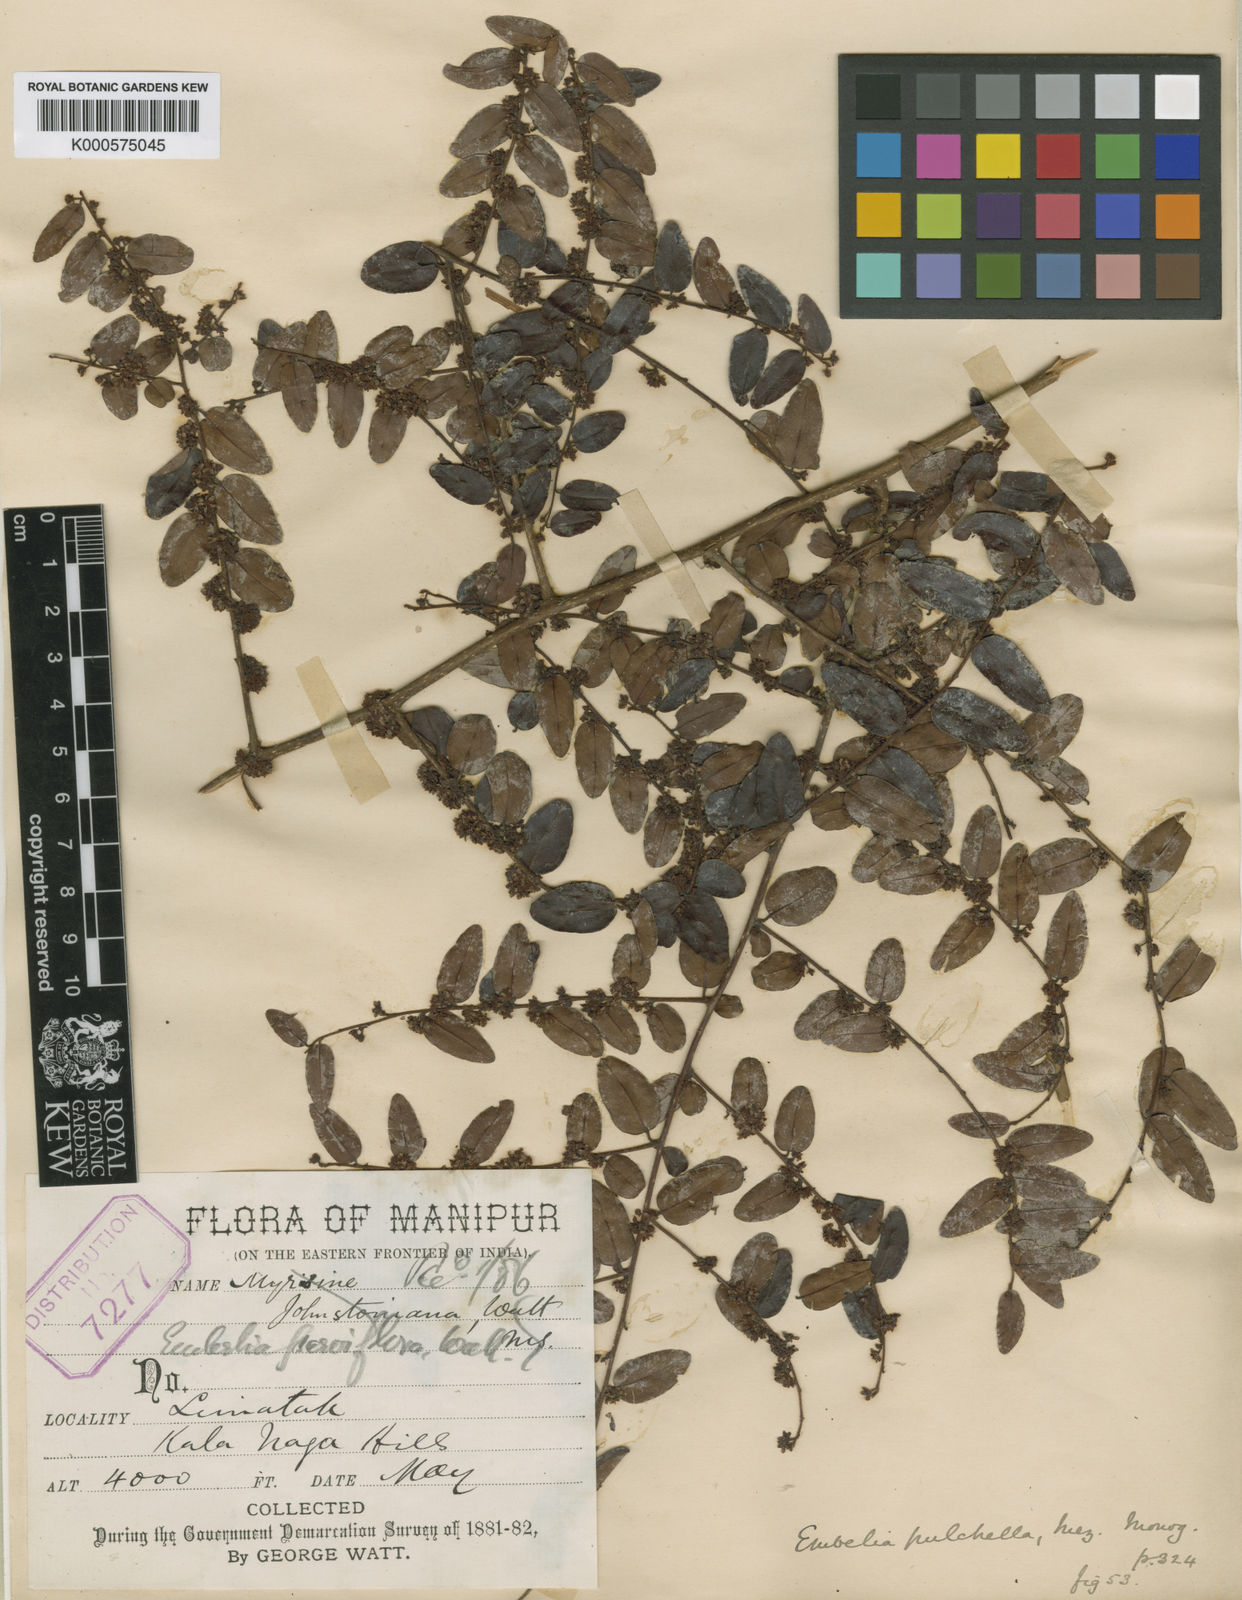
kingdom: Plantae
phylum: Tracheophyta
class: Magnoliopsida
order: Ericales
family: Primulaceae
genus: Embelia
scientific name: Embelia parviflora
